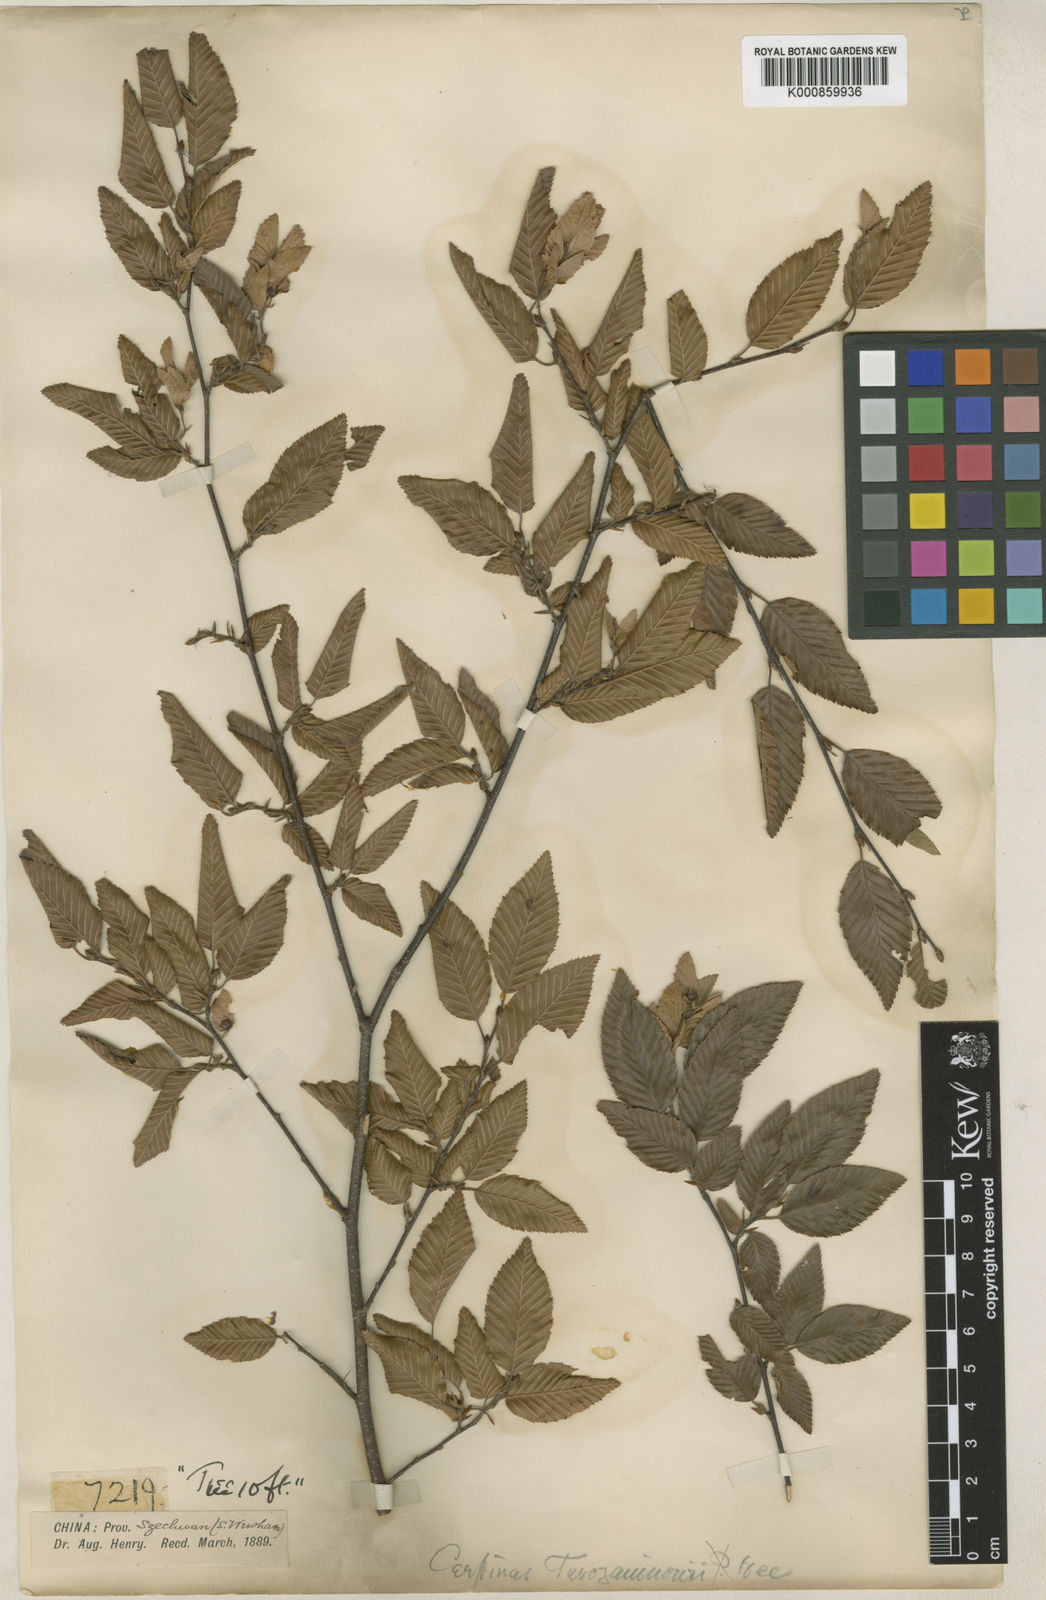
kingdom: Plantae
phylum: Tracheophyta
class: Magnoliopsida
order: Fagales
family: Betulaceae
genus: Carpinus
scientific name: Carpinus
